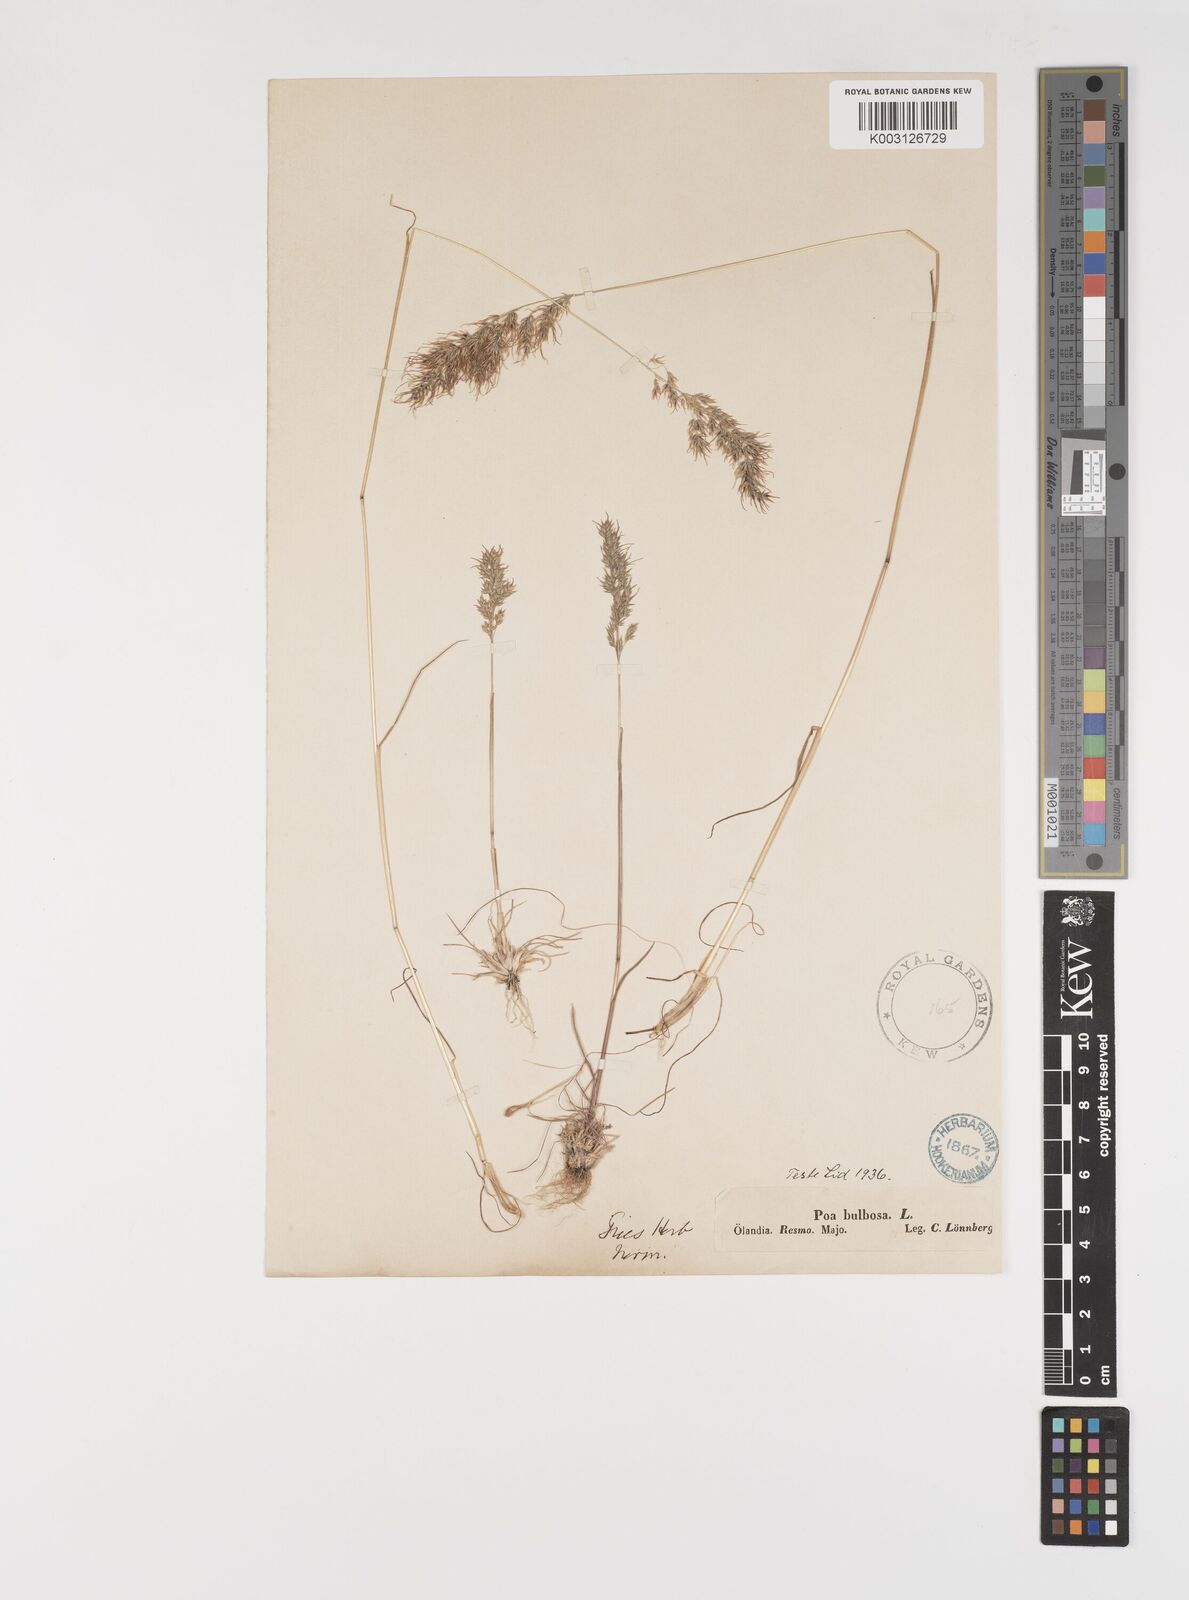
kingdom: Plantae
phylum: Tracheophyta
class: Liliopsida
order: Poales
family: Poaceae
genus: Poa
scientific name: Poa bulbosa
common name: Bulbous bluegrass
